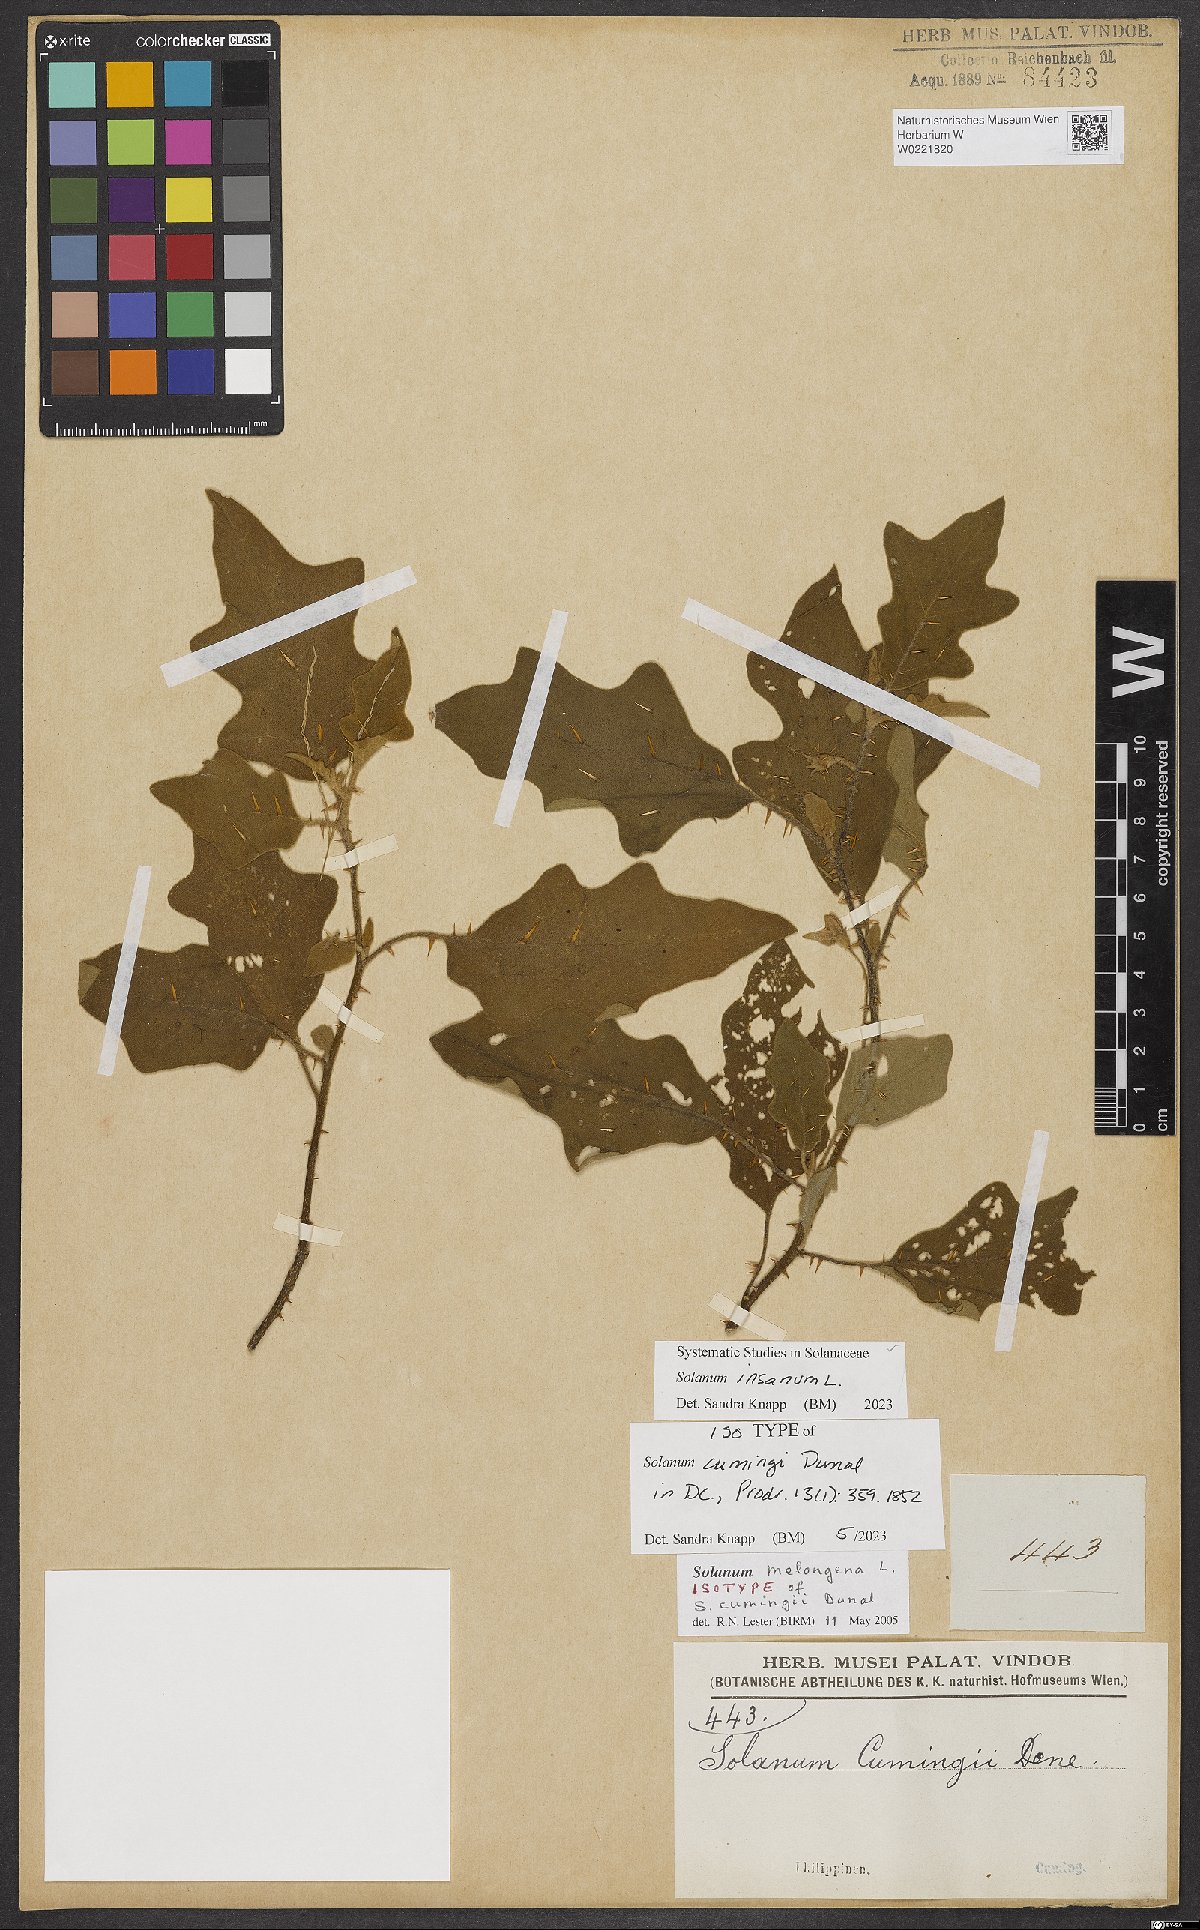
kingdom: Plantae
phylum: Tracheophyta
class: Magnoliopsida
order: Solanales
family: Solanaceae
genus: Solanum
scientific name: Solanum insanum
